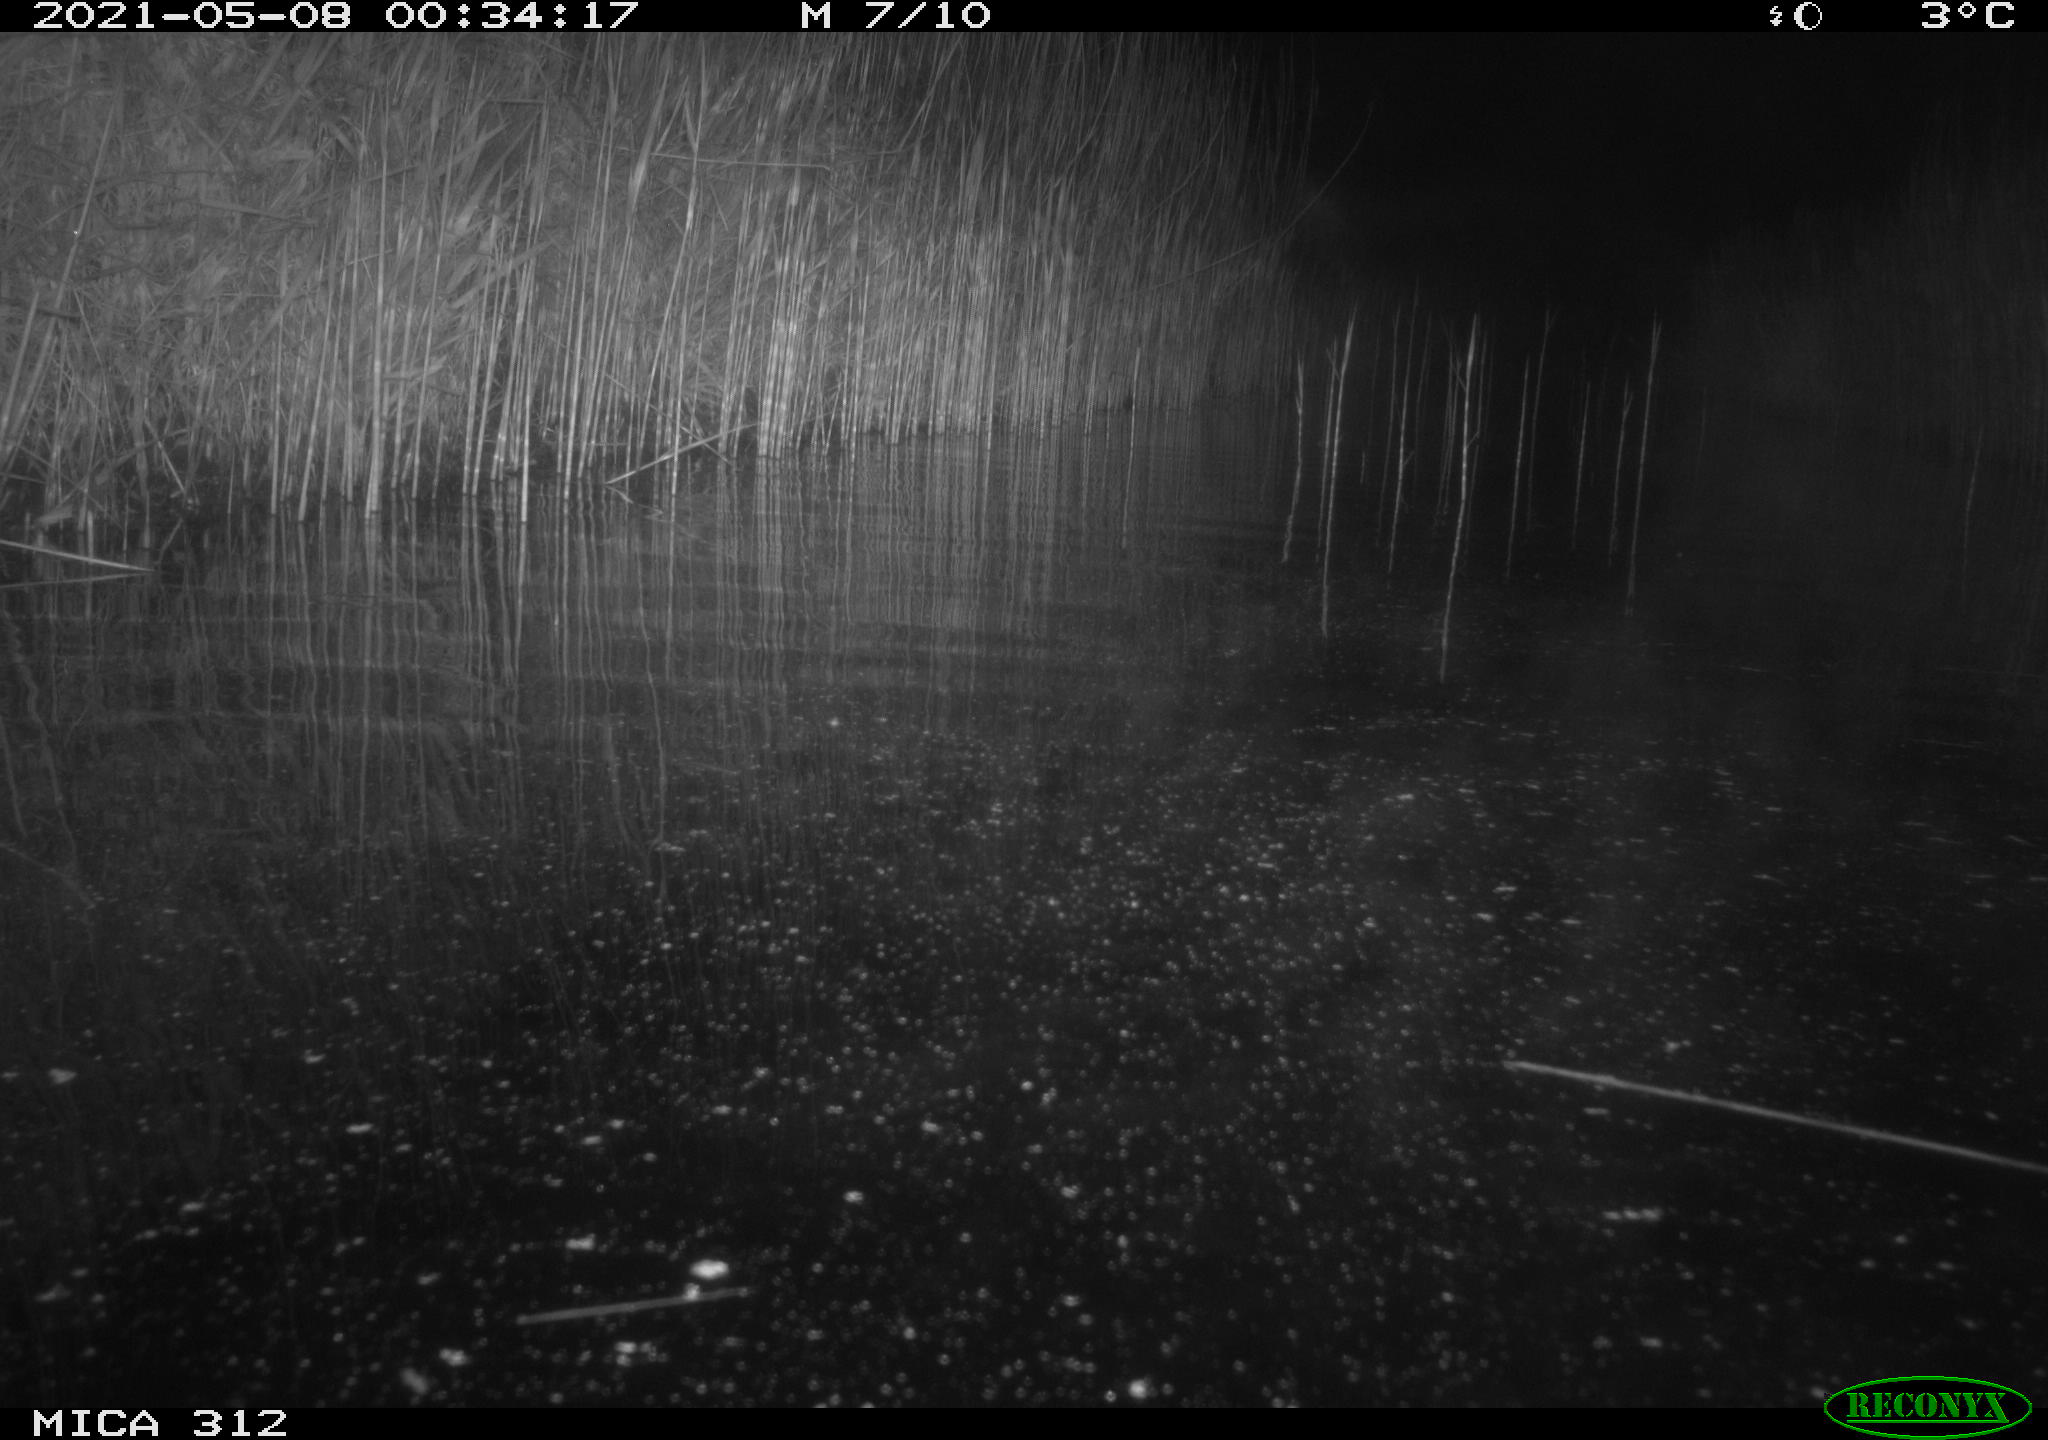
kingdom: Animalia
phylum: Chordata
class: Aves
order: Anseriformes
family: Anatidae
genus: Anas
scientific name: Anas platyrhynchos
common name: Mallard
